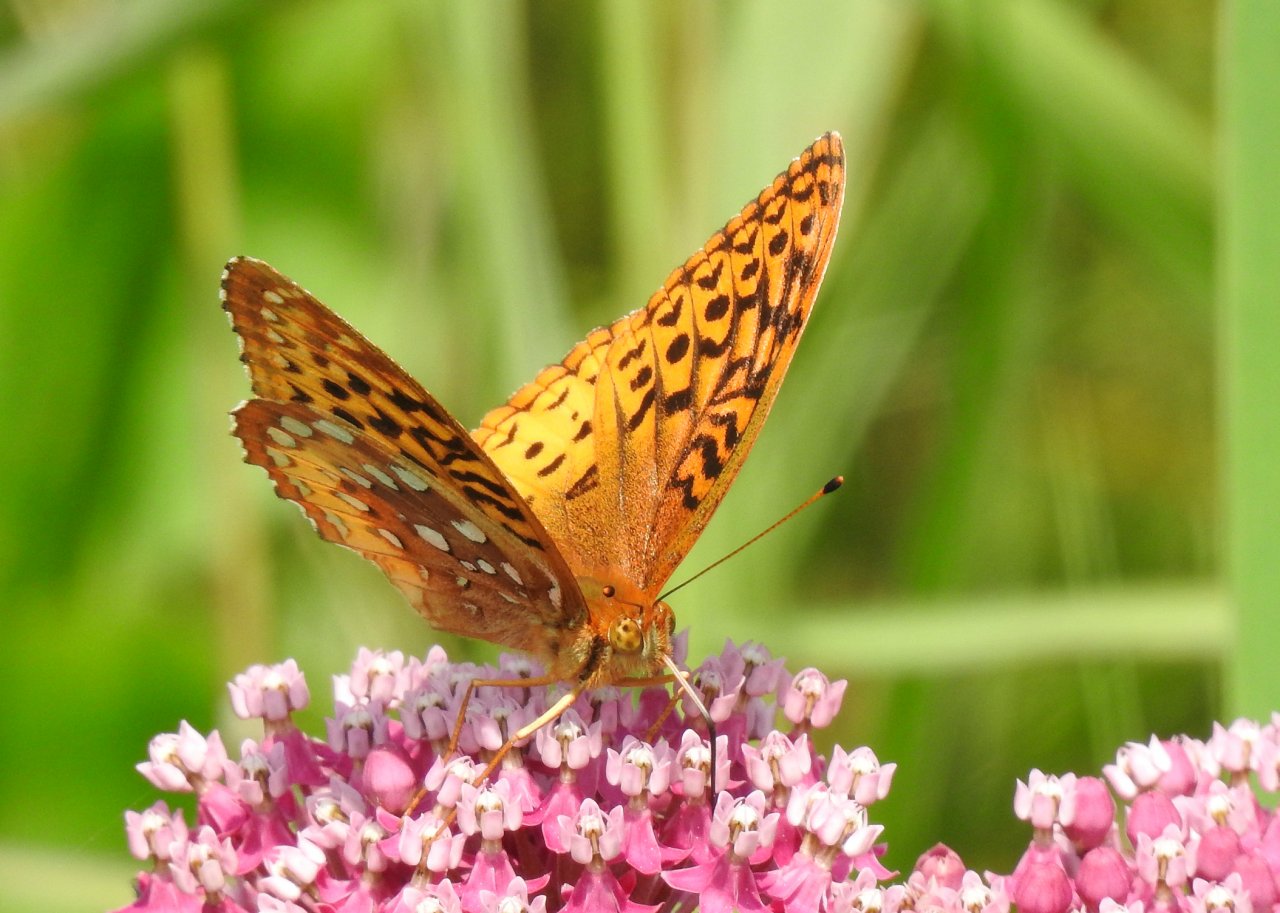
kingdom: Animalia
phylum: Arthropoda
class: Insecta
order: Lepidoptera
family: Nymphalidae
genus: Speyeria
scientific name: Speyeria cybele
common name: Great Spangled Fritillary
